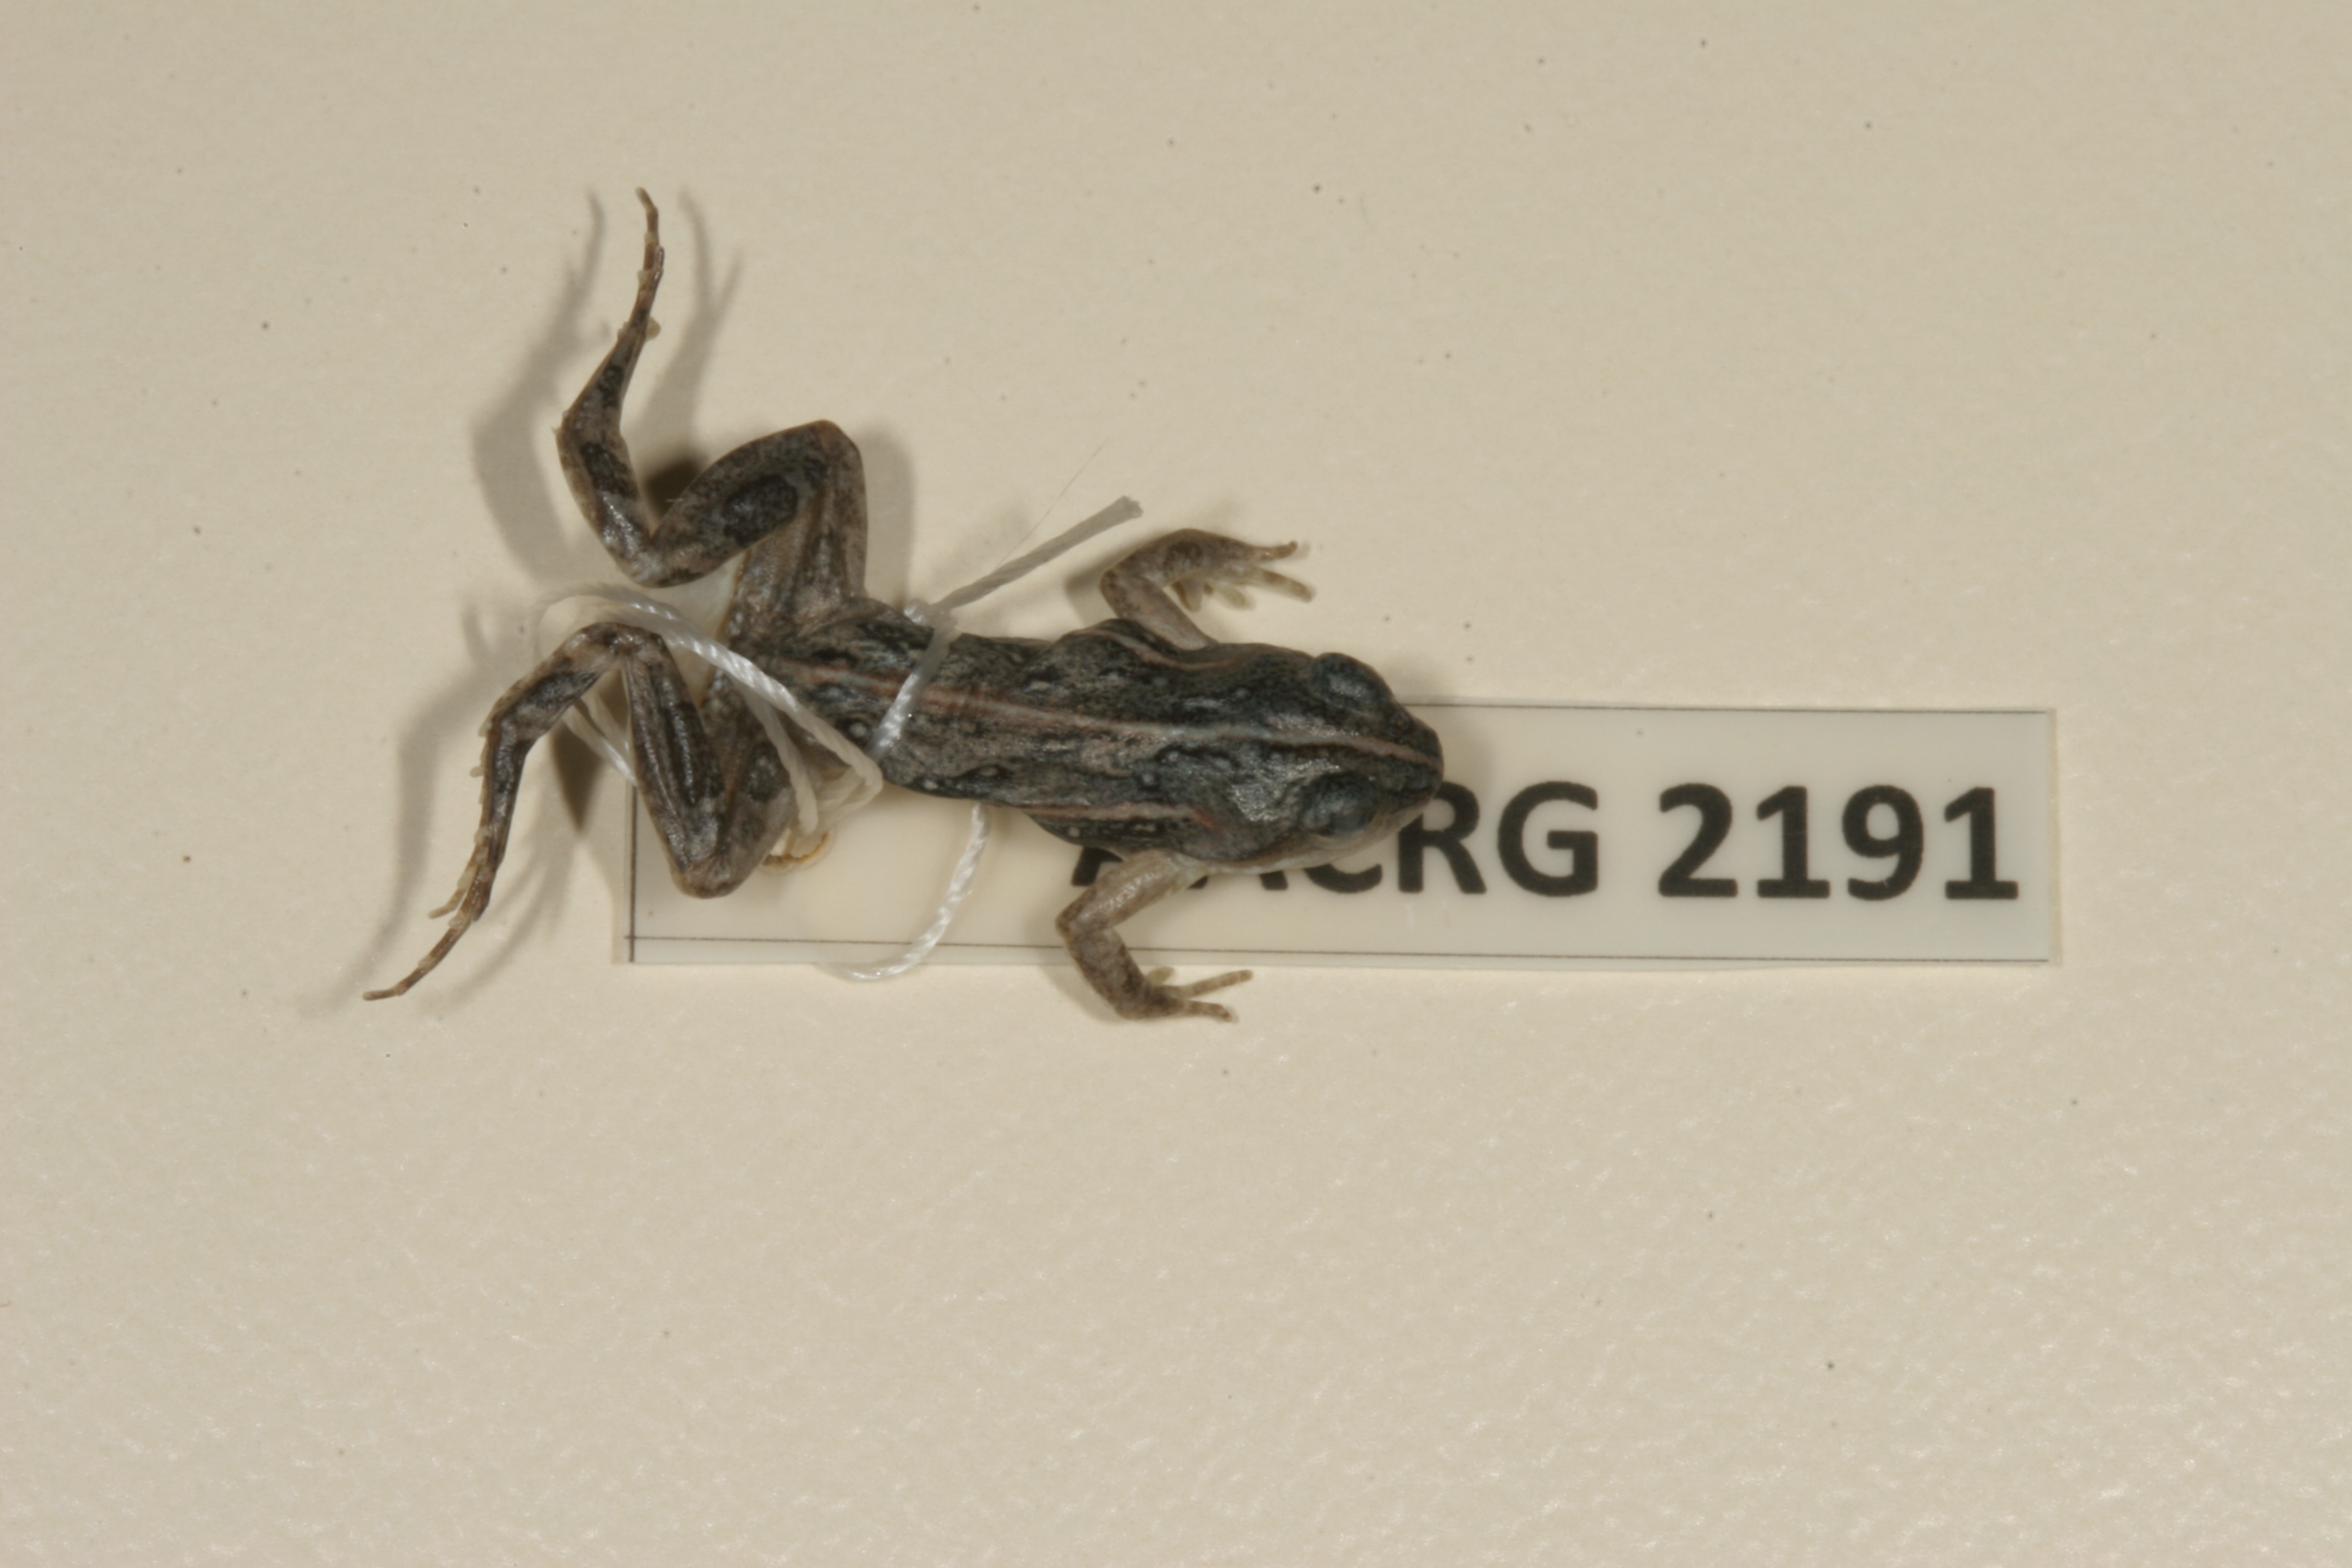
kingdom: Animalia
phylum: Chordata
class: Amphibia
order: Anura
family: Pyxicephalidae
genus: Cacosternum
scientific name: Cacosternum boettgeri
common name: Boettger's frog
